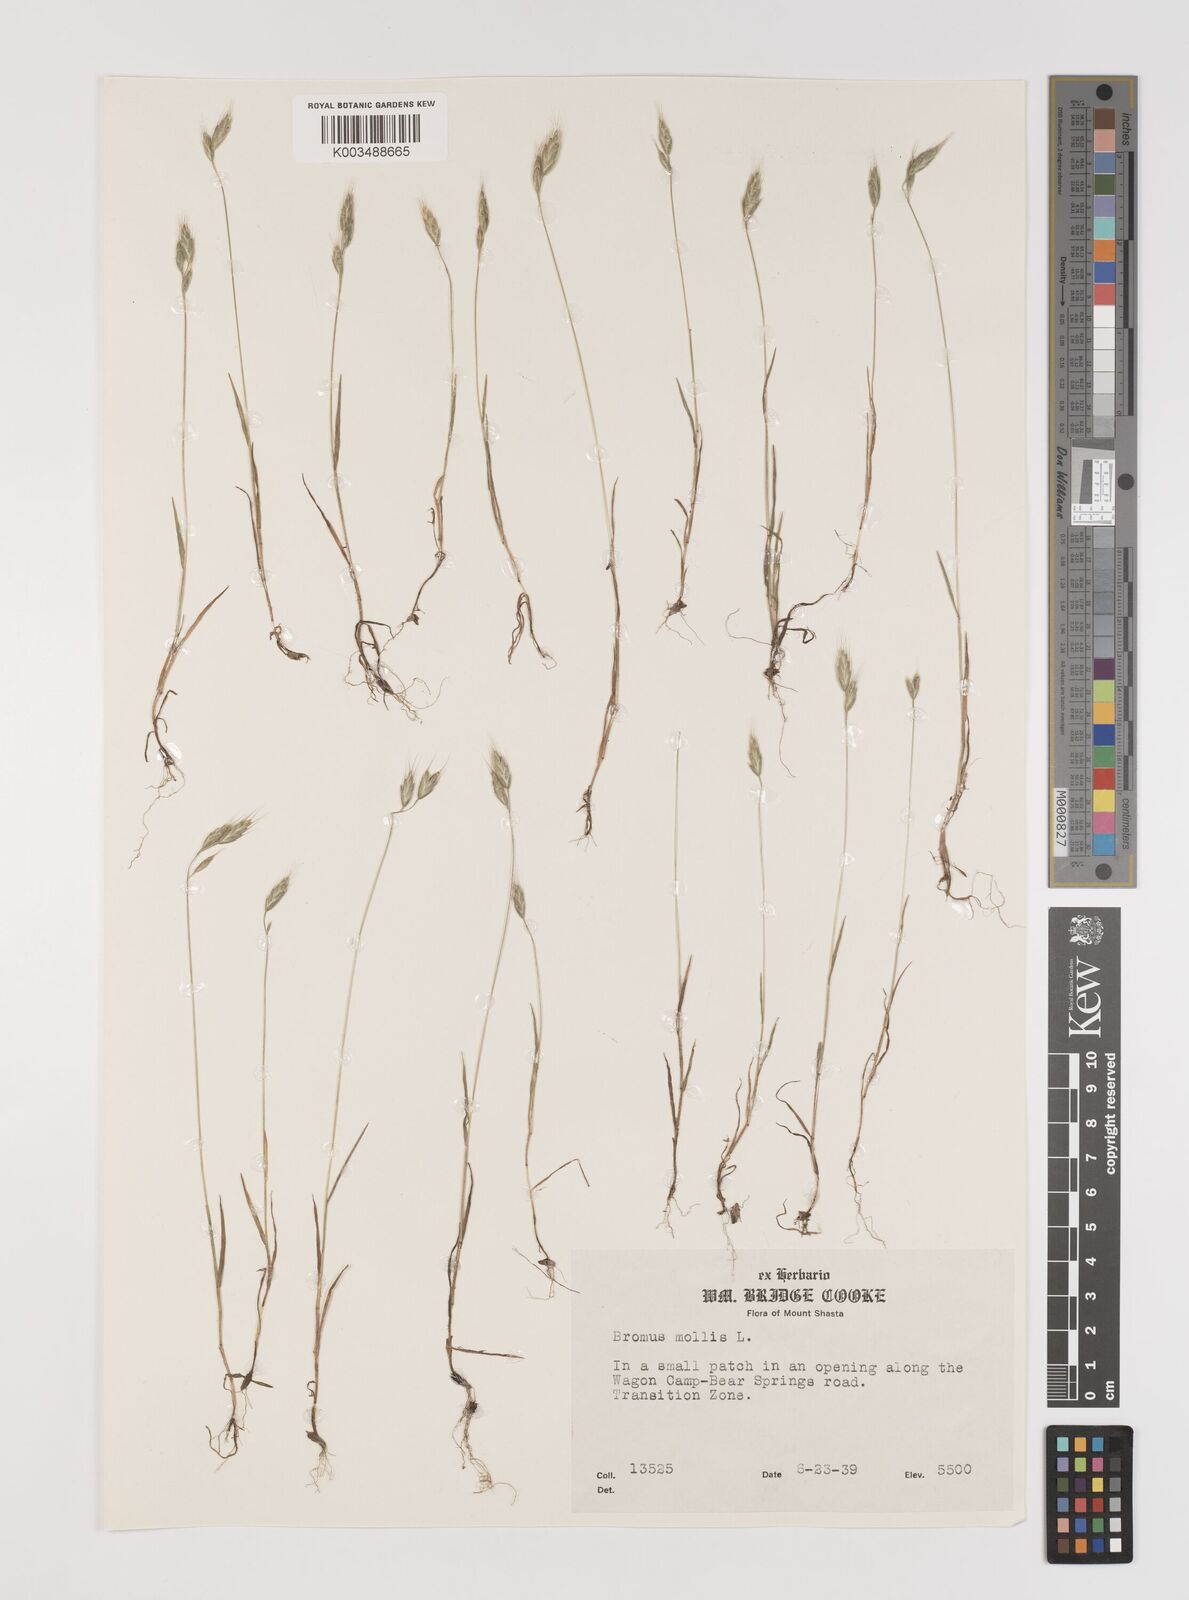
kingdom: Plantae
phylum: Tracheophyta
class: Liliopsida
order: Poales
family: Poaceae
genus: Bromus
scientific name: Bromus hordeaceus
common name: Soft brome
